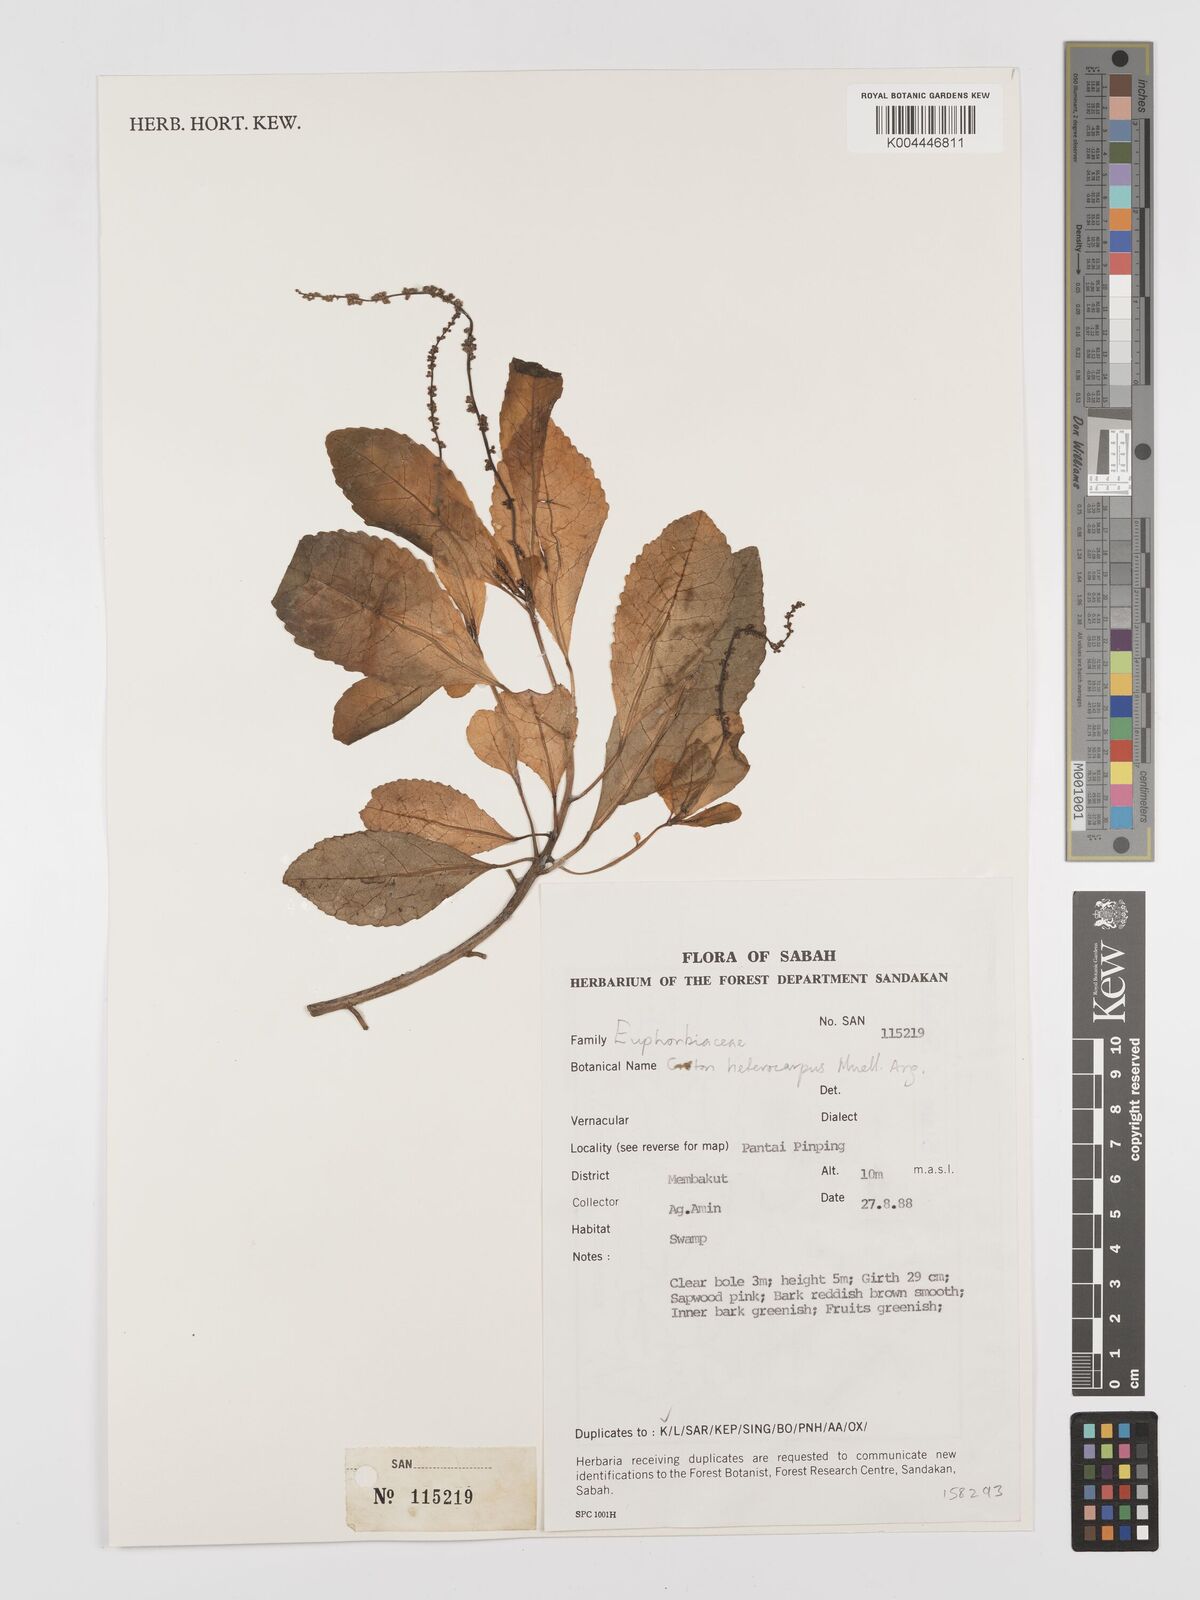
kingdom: Plantae
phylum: Tracheophyta
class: Magnoliopsida
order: Malpighiales
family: Euphorbiaceae
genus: Croton
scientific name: Croton heterocarpus
